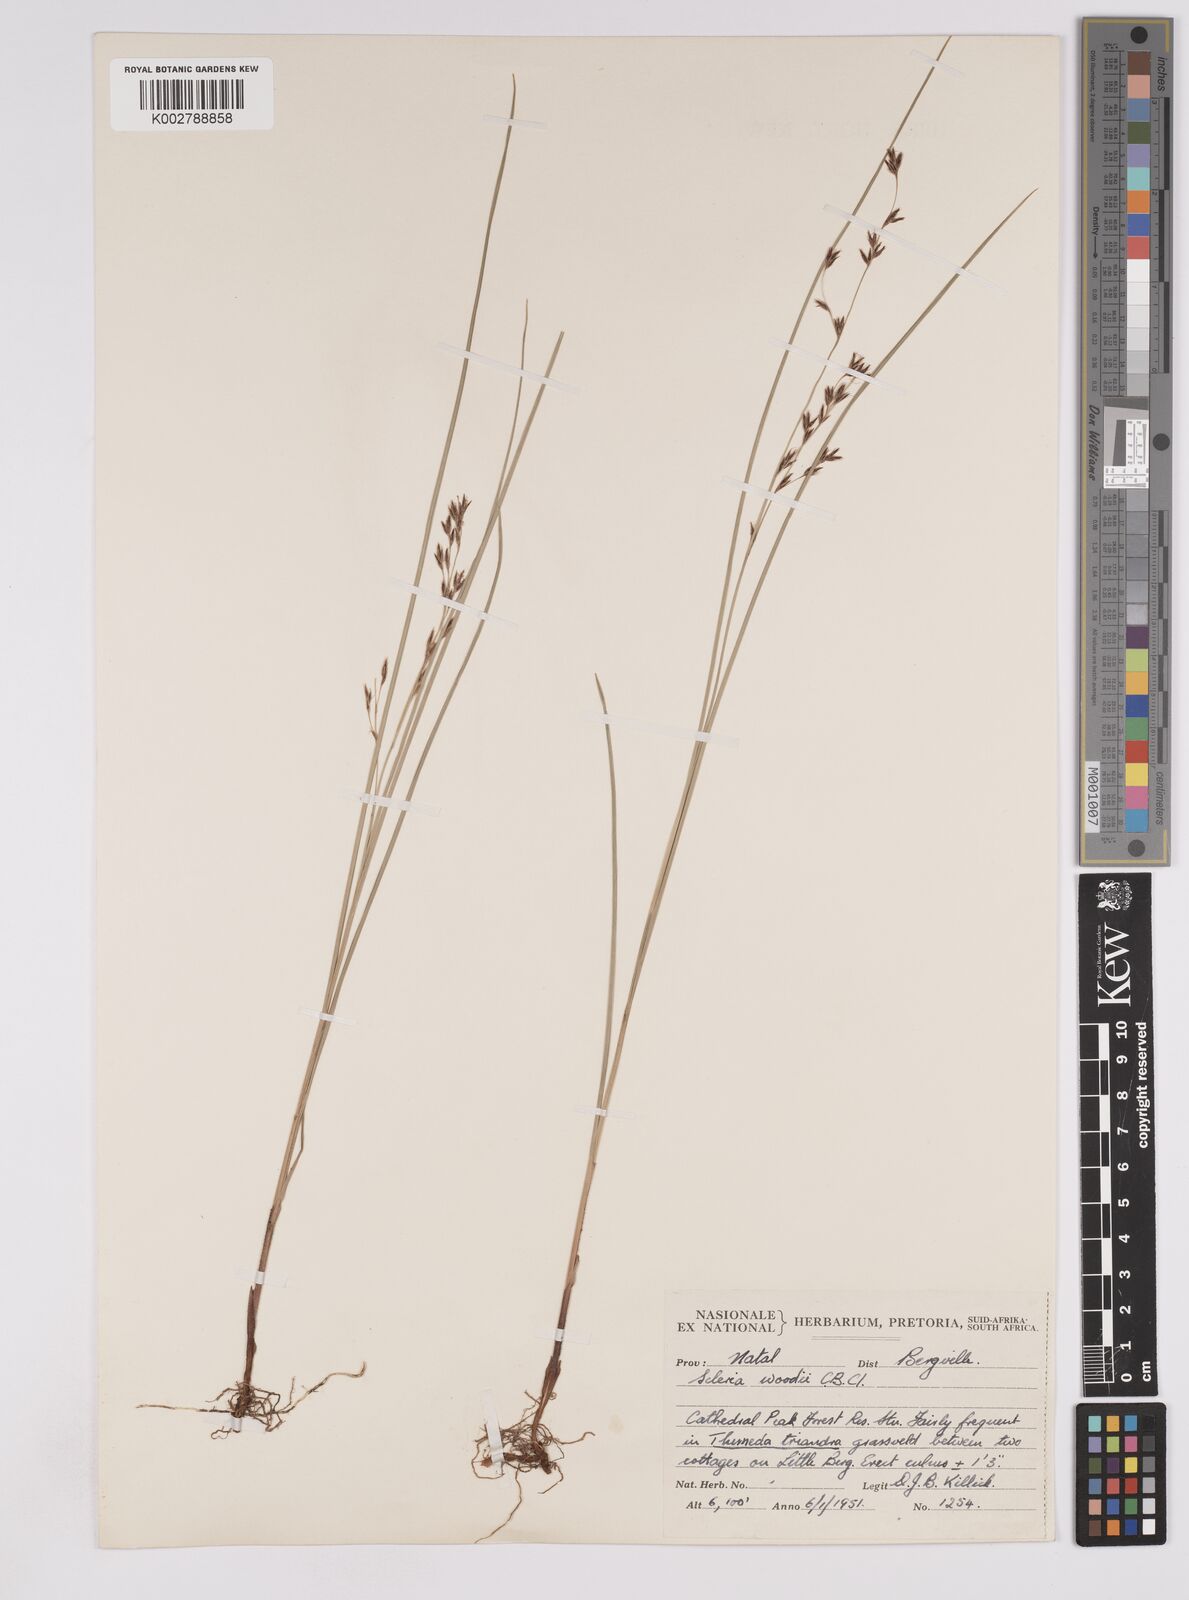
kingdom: Plantae
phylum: Tracheophyta
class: Liliopsida
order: Poales
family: Cyperaceae
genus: Scleria
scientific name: Scleria woodii
